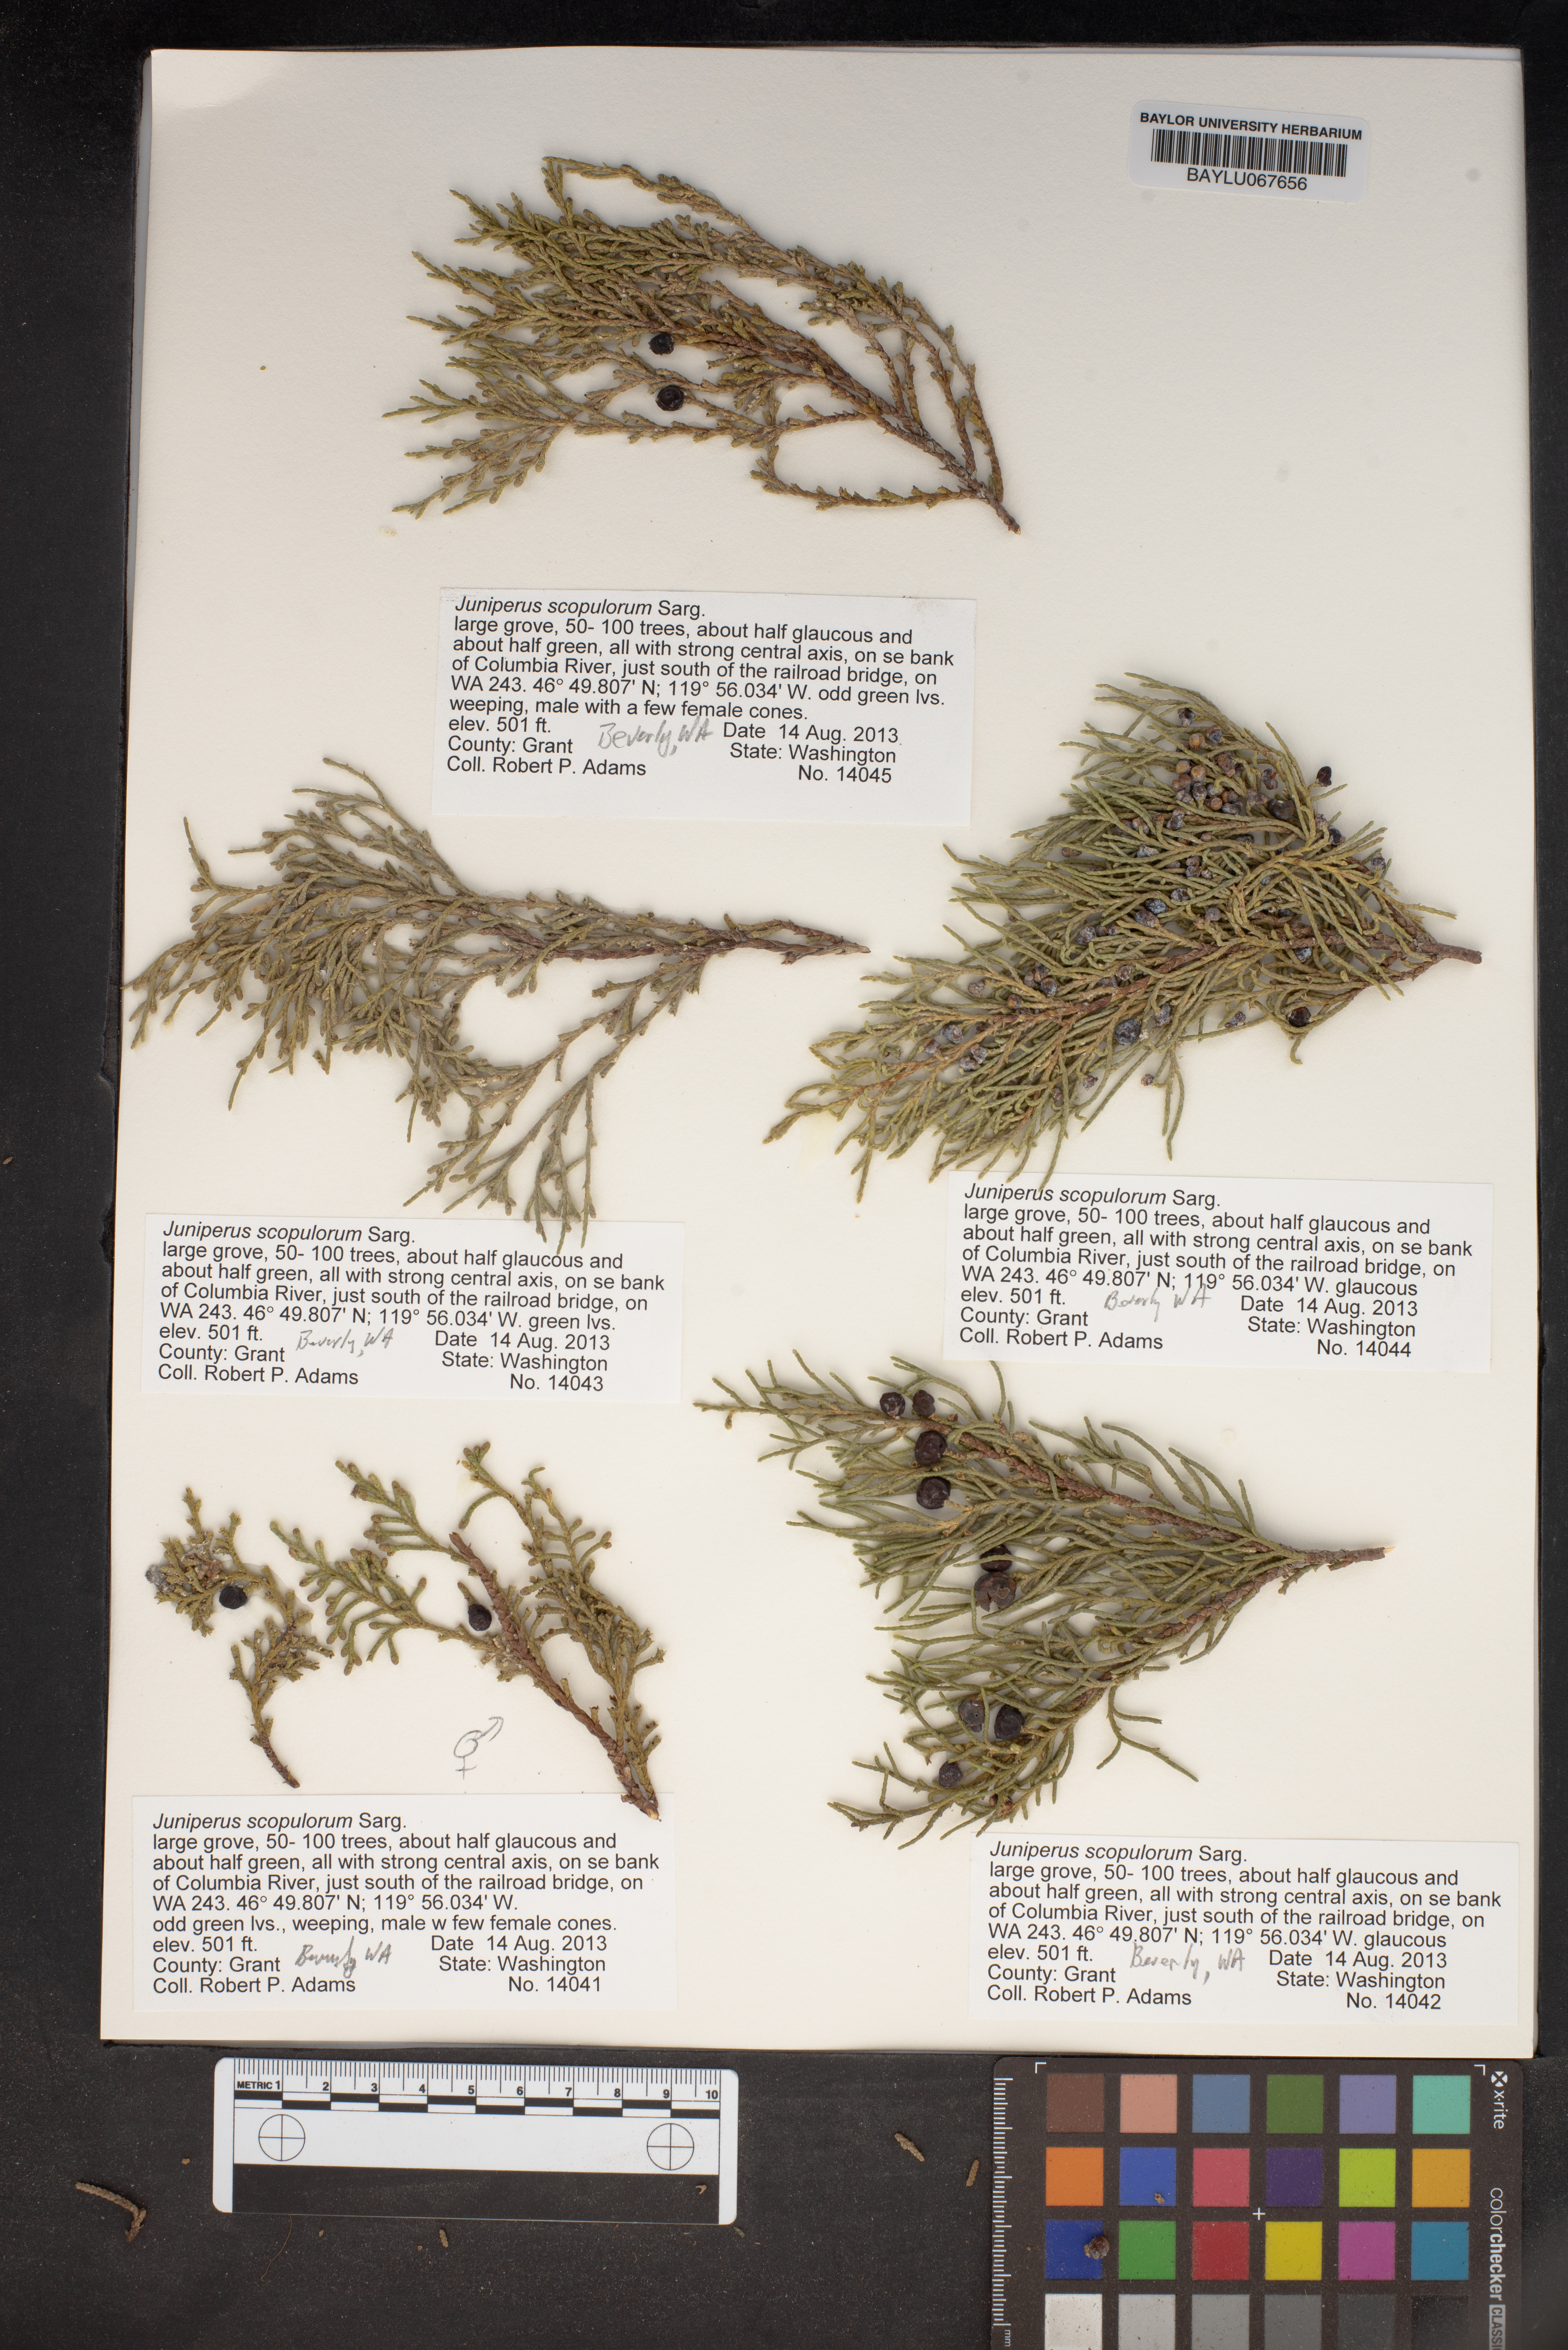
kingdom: Plantae
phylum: Tracheophyta
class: Pinopsida
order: Pinales
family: Cupressaceae
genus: Juniperus
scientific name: Juniperus scopulorum
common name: Rocky mountain juniper
